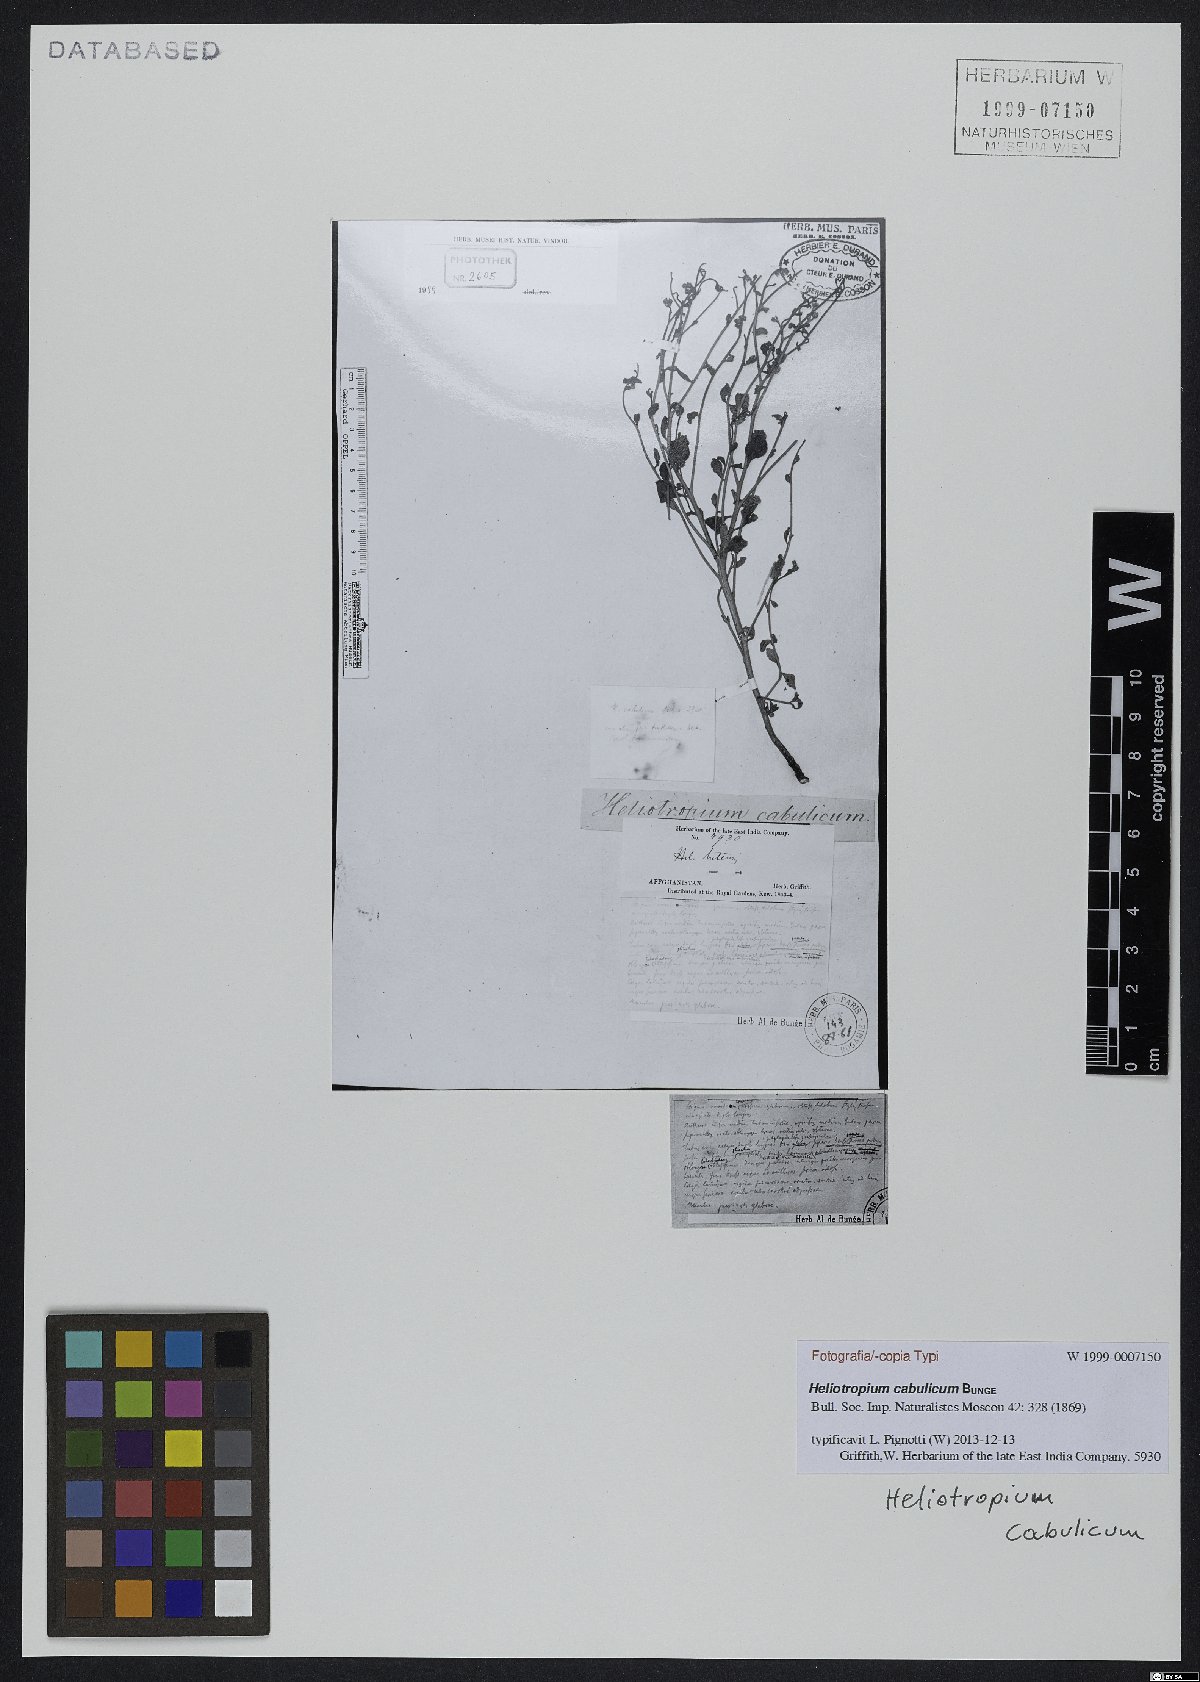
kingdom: Plantae
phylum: Tracheophyta
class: Magnoliopsida
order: Boraginales
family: Heliotropiaceae
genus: Heliotropium
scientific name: Heliotropium cabulicum
